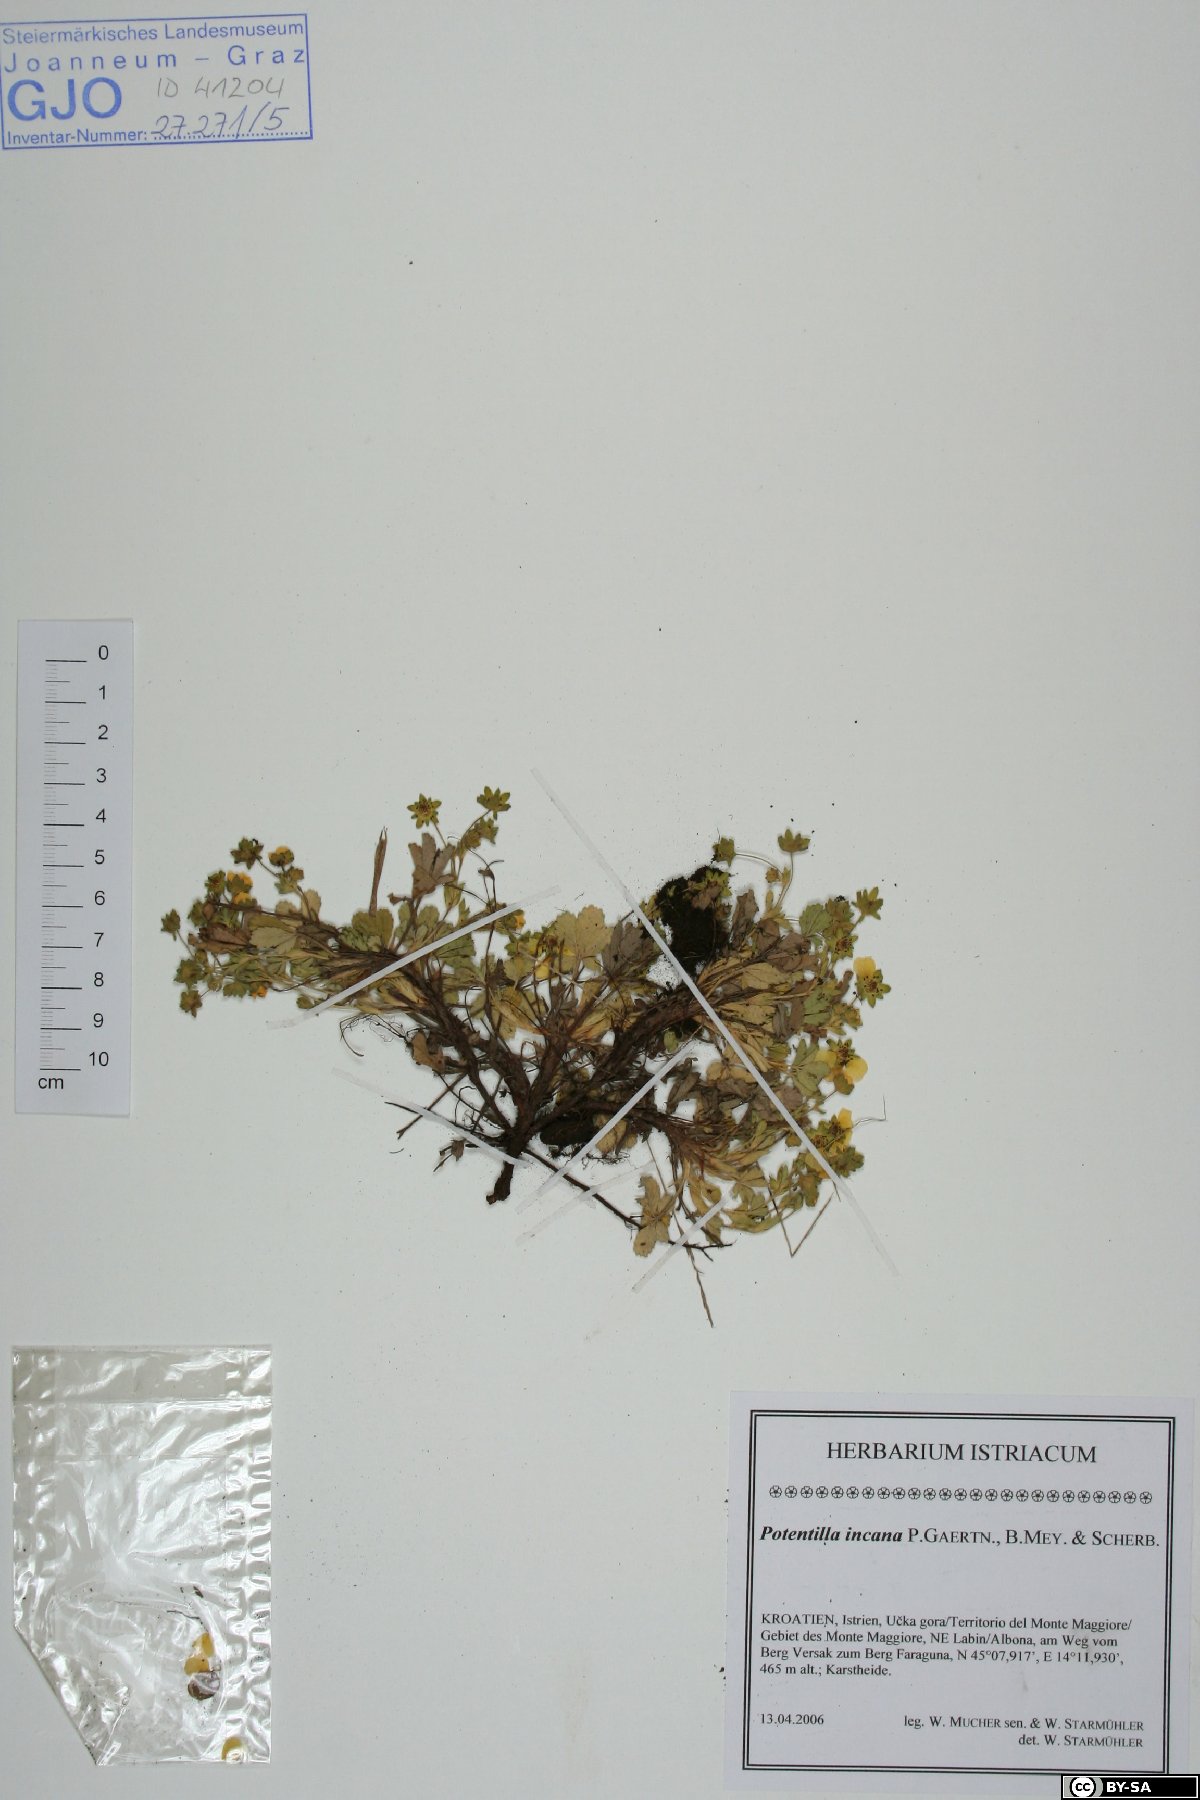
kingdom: Plantae
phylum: Tracheophyta
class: Magnoliopsida
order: Rosales
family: Rosaceae
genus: Potentilla
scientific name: Potentilla cinerea
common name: Ashy cinquefoil
